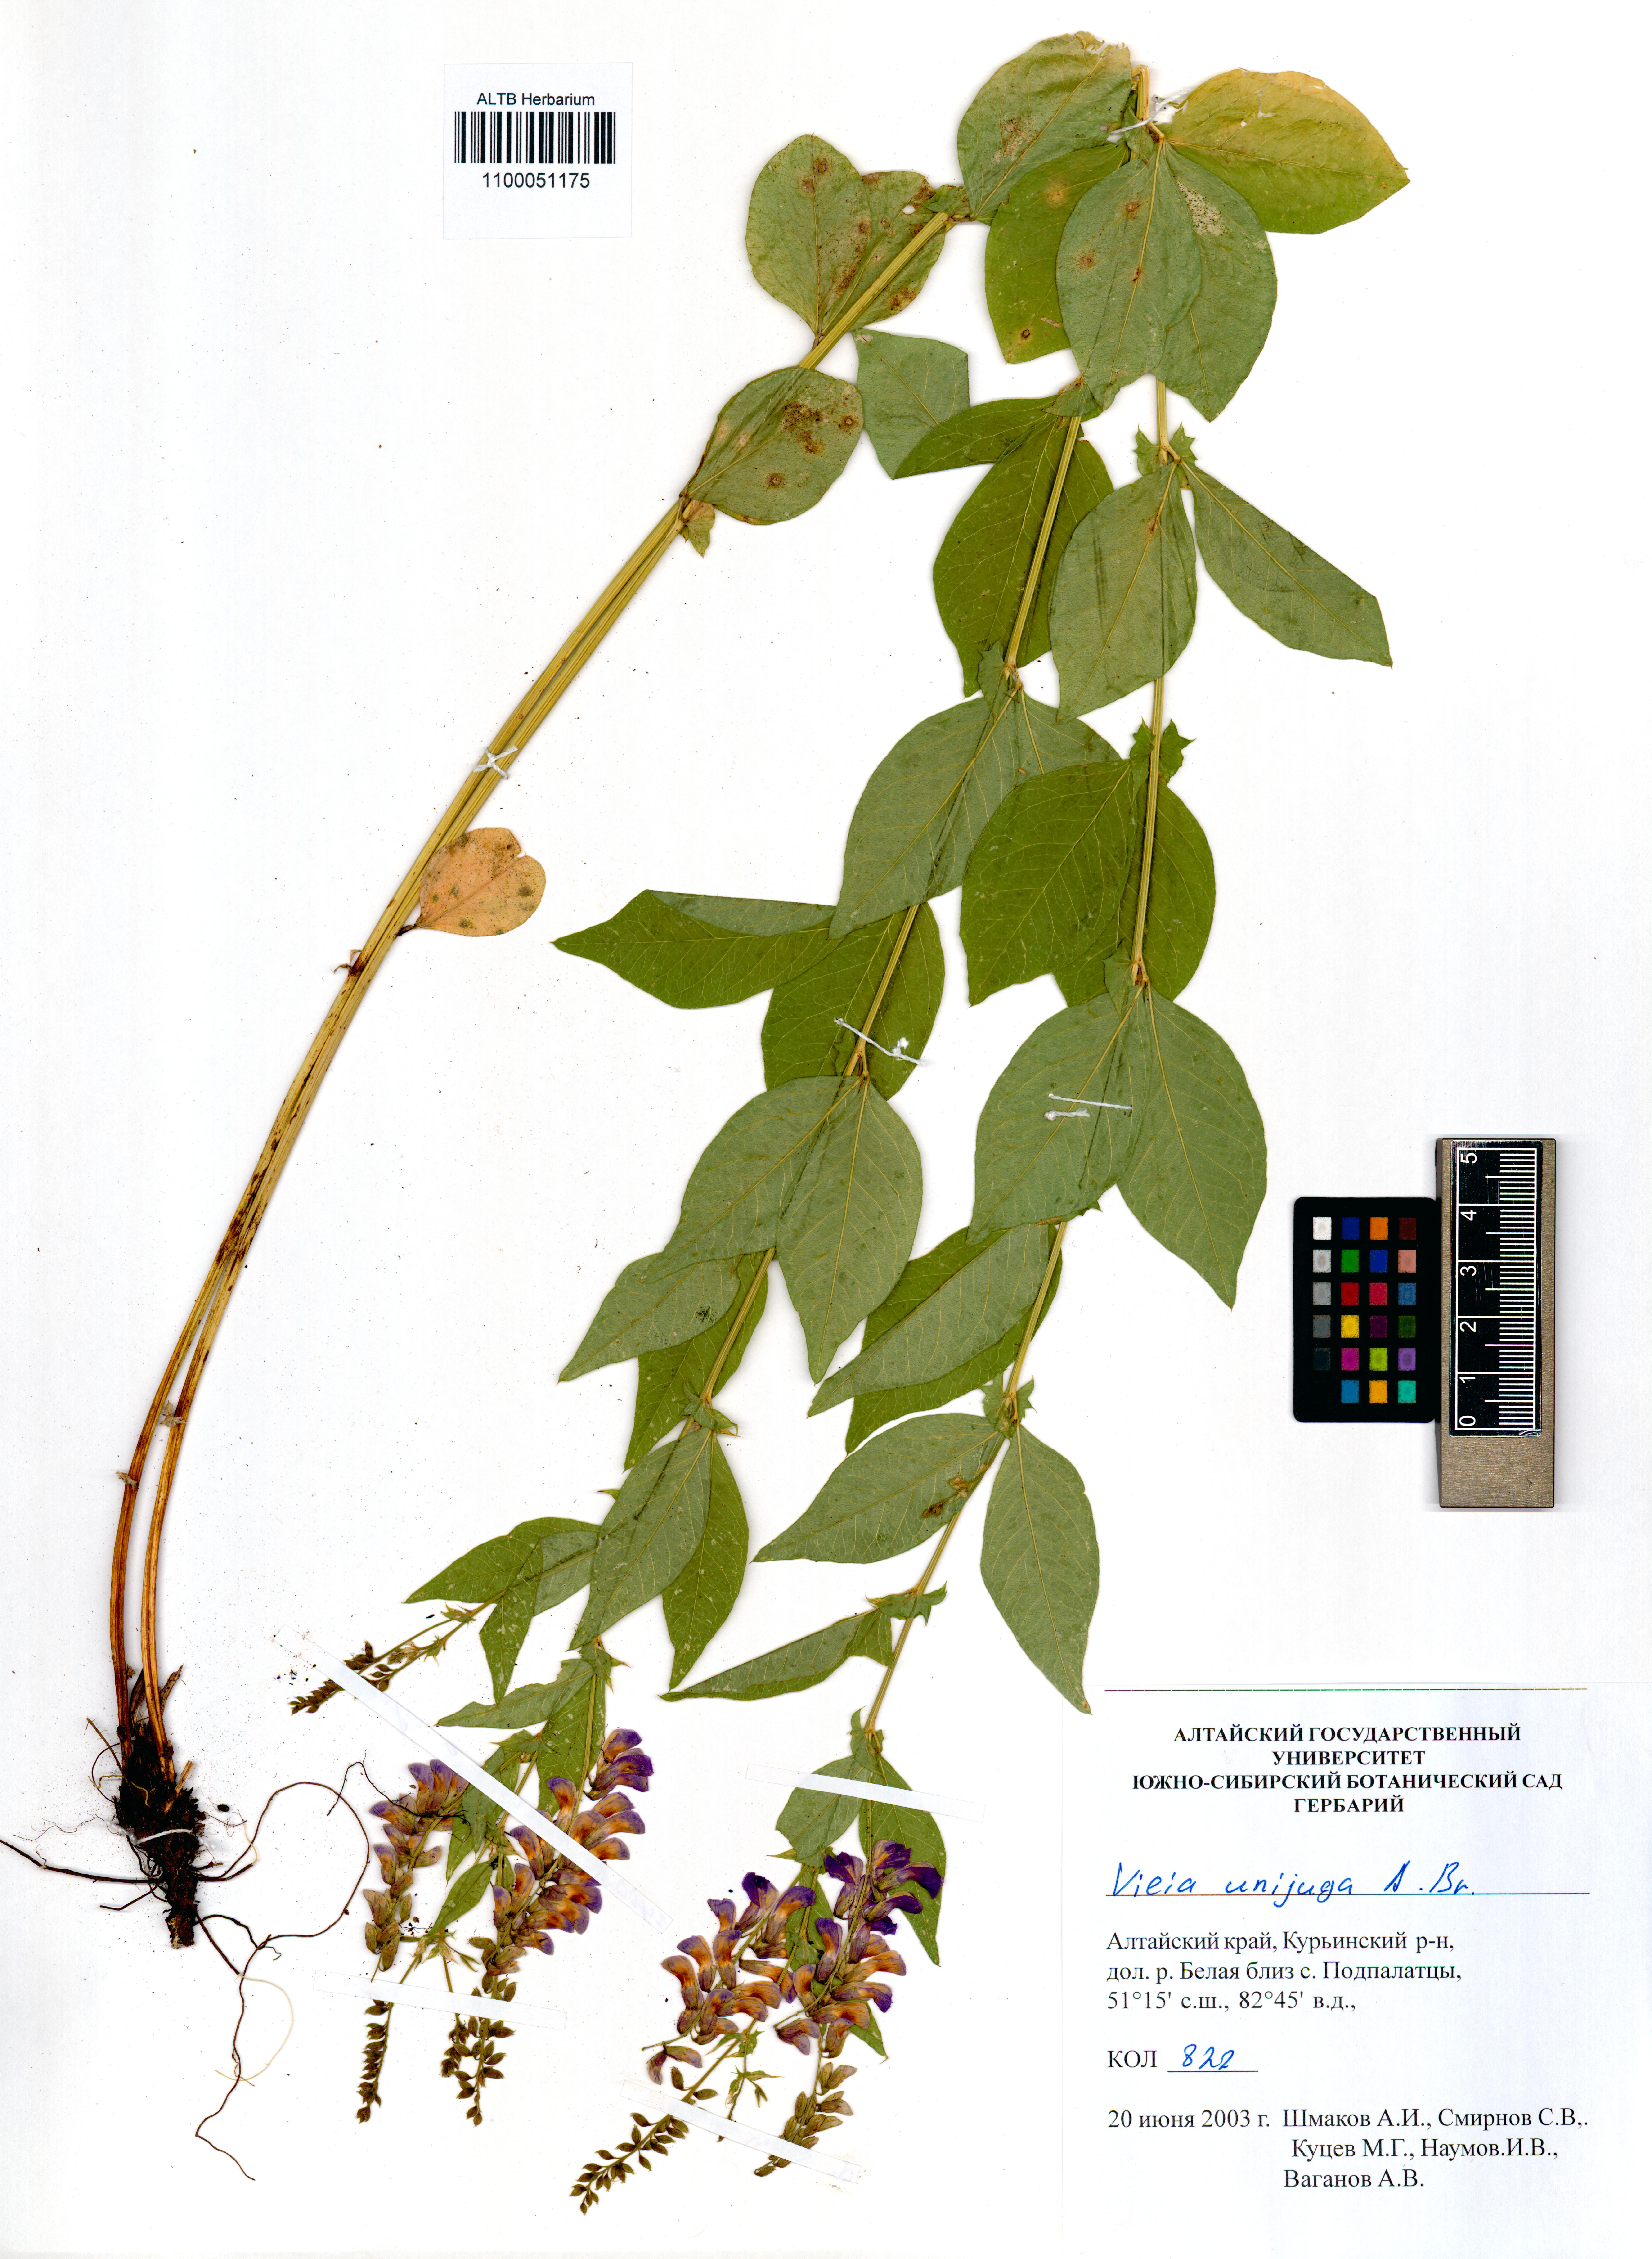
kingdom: Plantae
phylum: Tracheophyta
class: Magnoliopsida
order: Fabales
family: Fabaceae
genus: Vicia
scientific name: Vicia unijuga
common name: Two-leaf vetch
